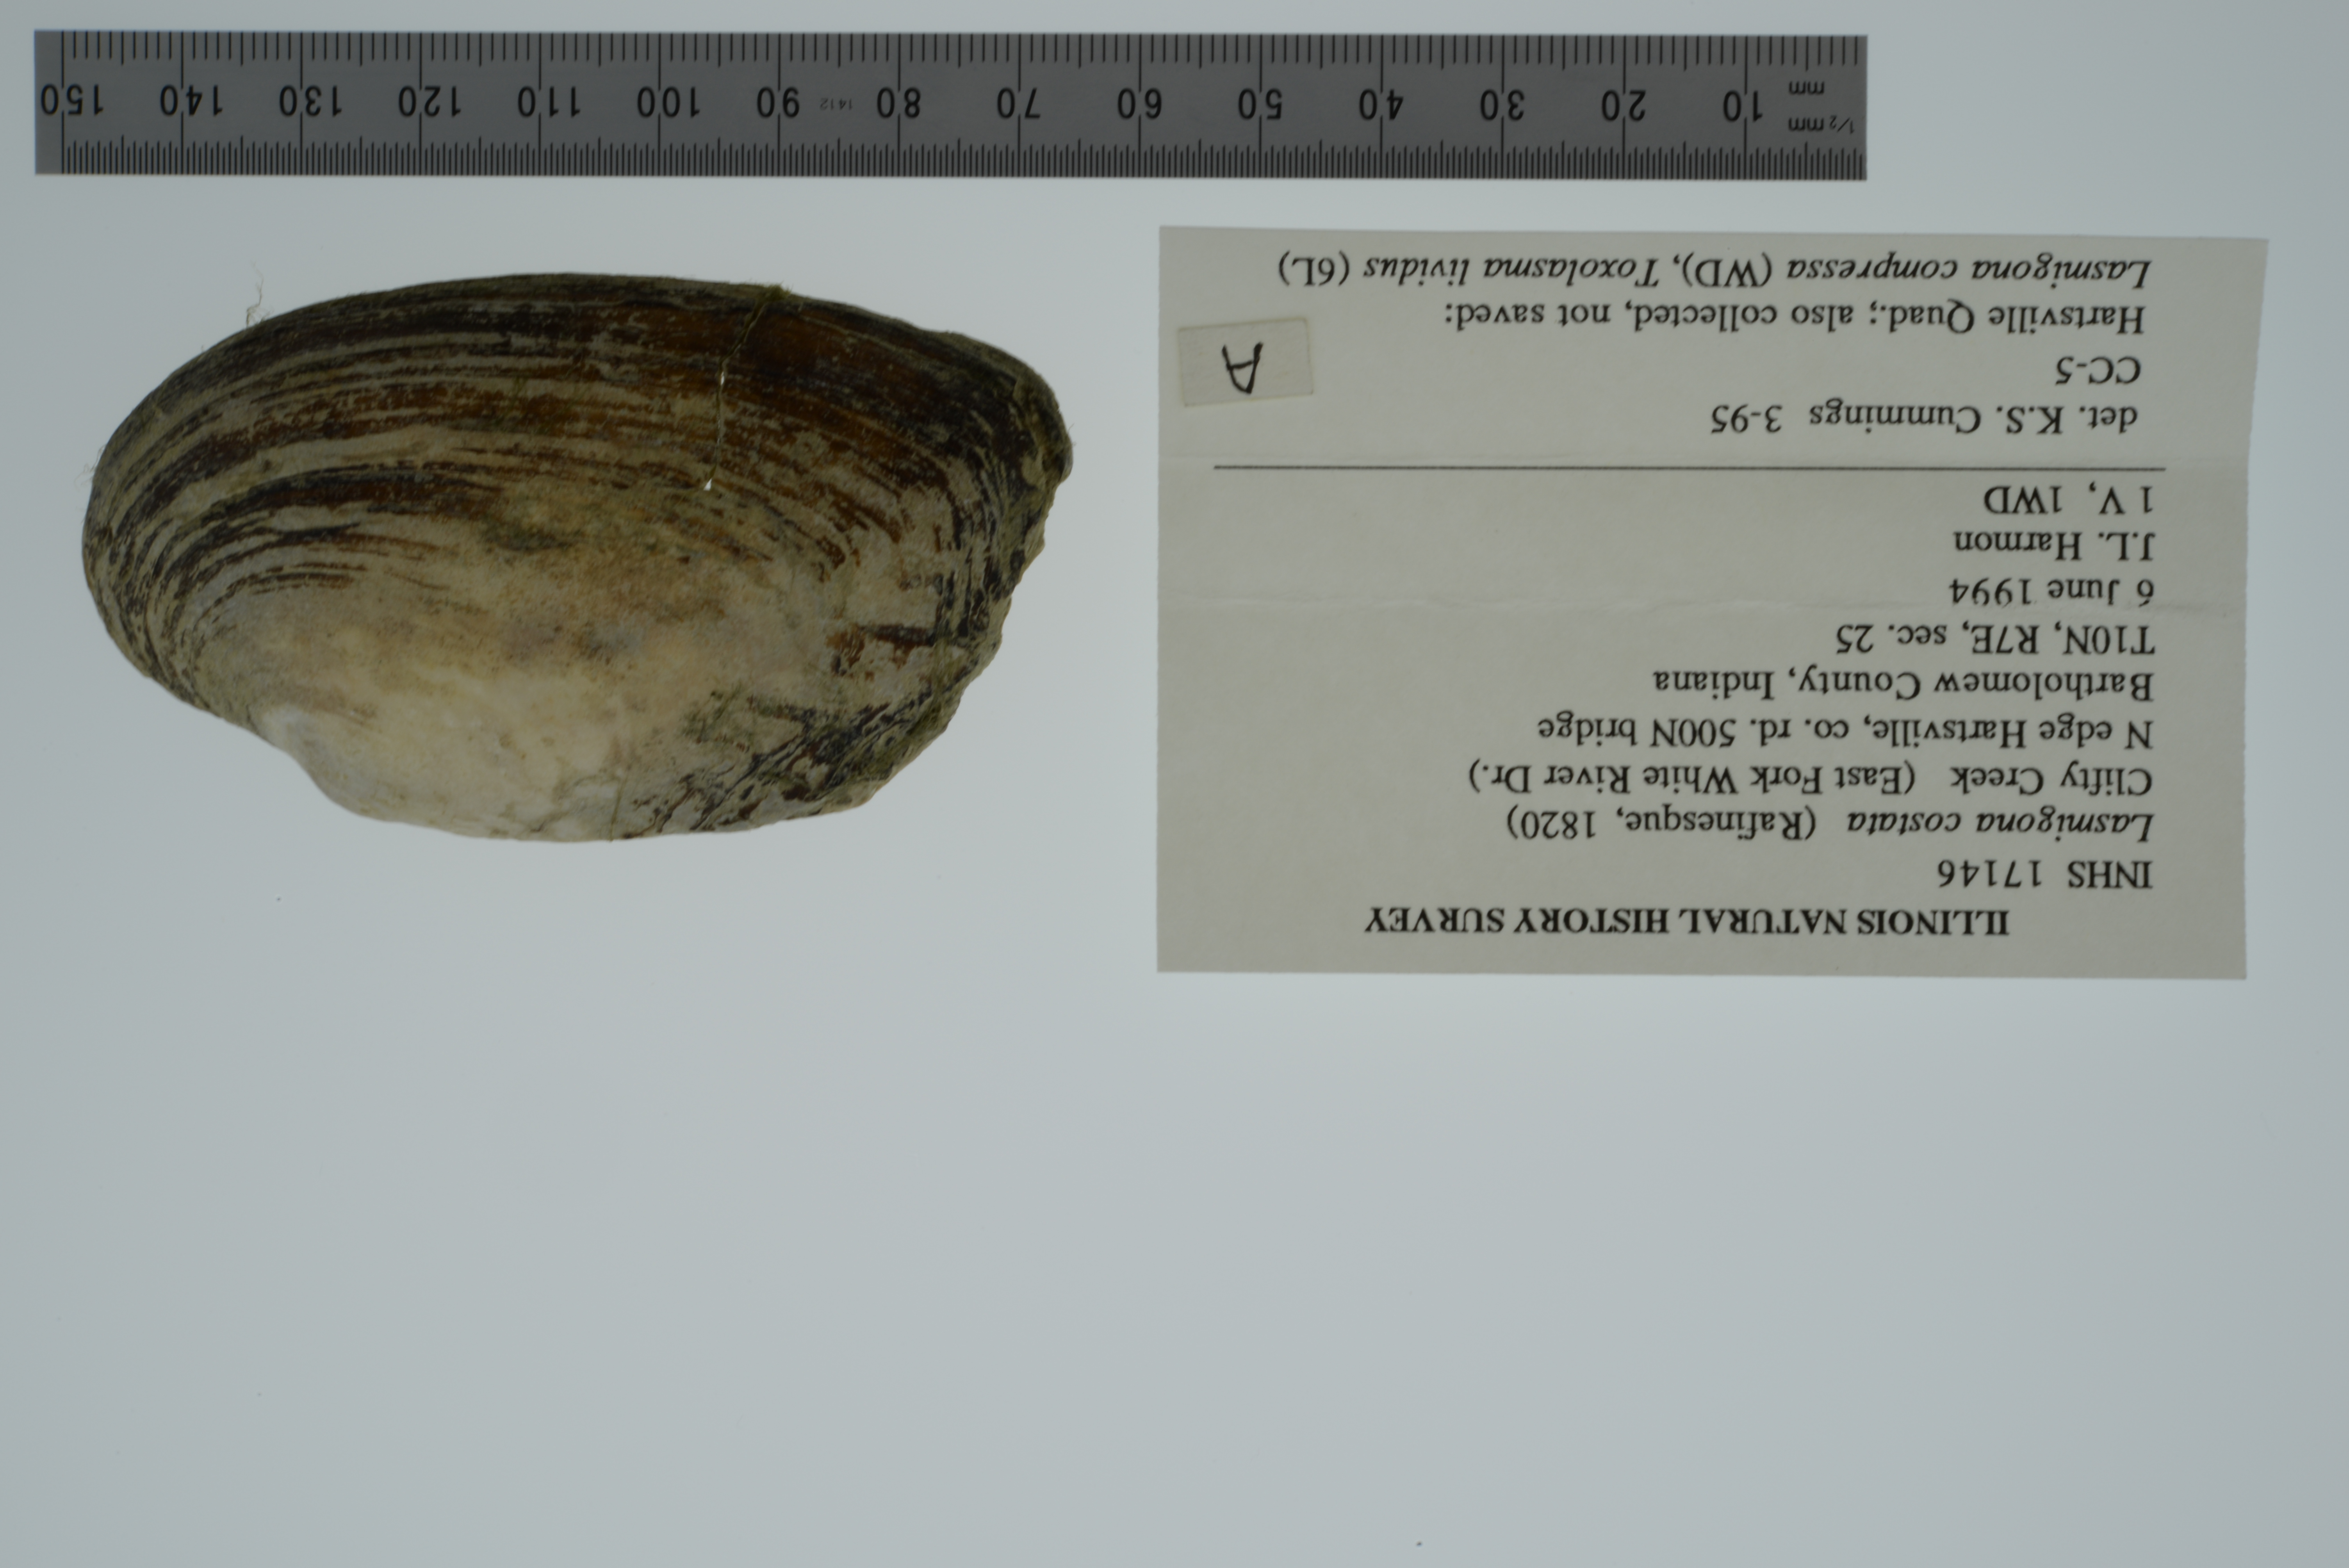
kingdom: Animalia
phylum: Mollusca
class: Bivalvia
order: Unionida
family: Unionidae
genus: Lasmigona
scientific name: Lasmigona costata
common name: Flutedshell
